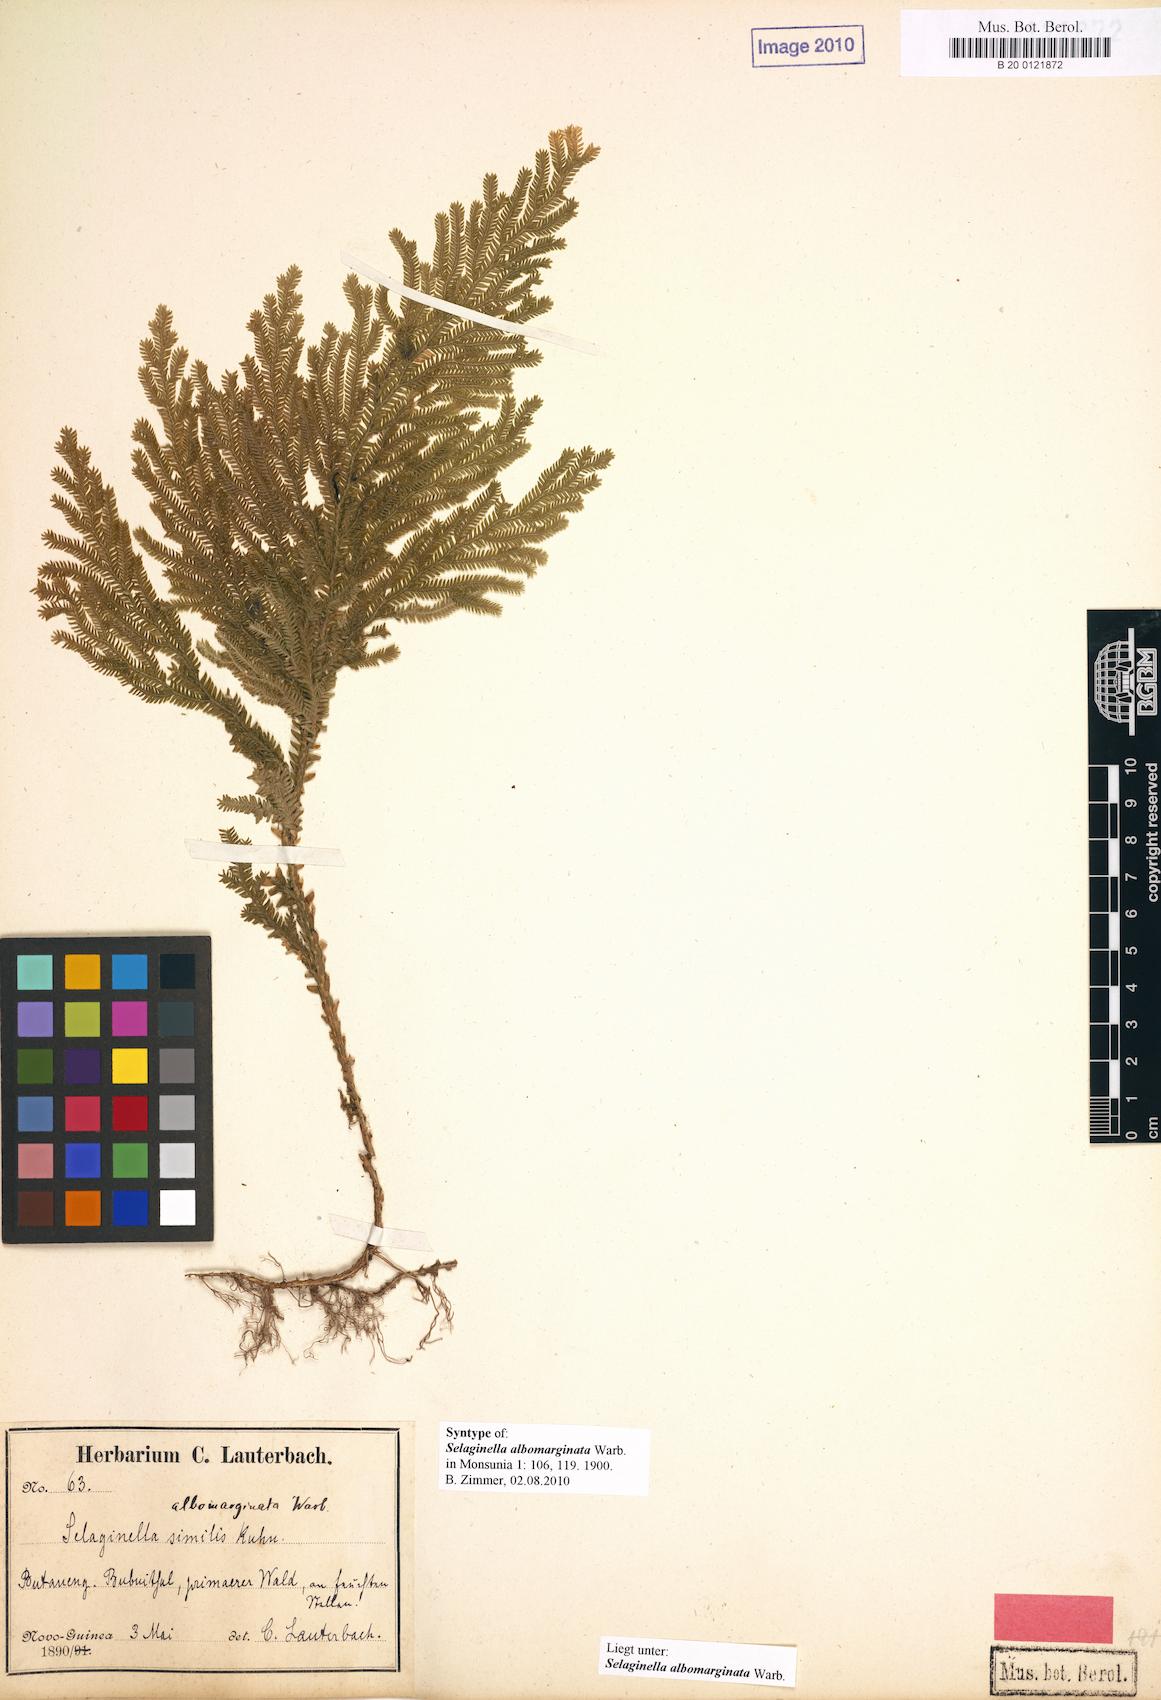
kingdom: Plantae
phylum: Tracheophyta
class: Lycopodiopsida
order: Selaginellales
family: Selaginellaceae
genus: Selaginella
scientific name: Selaginella
